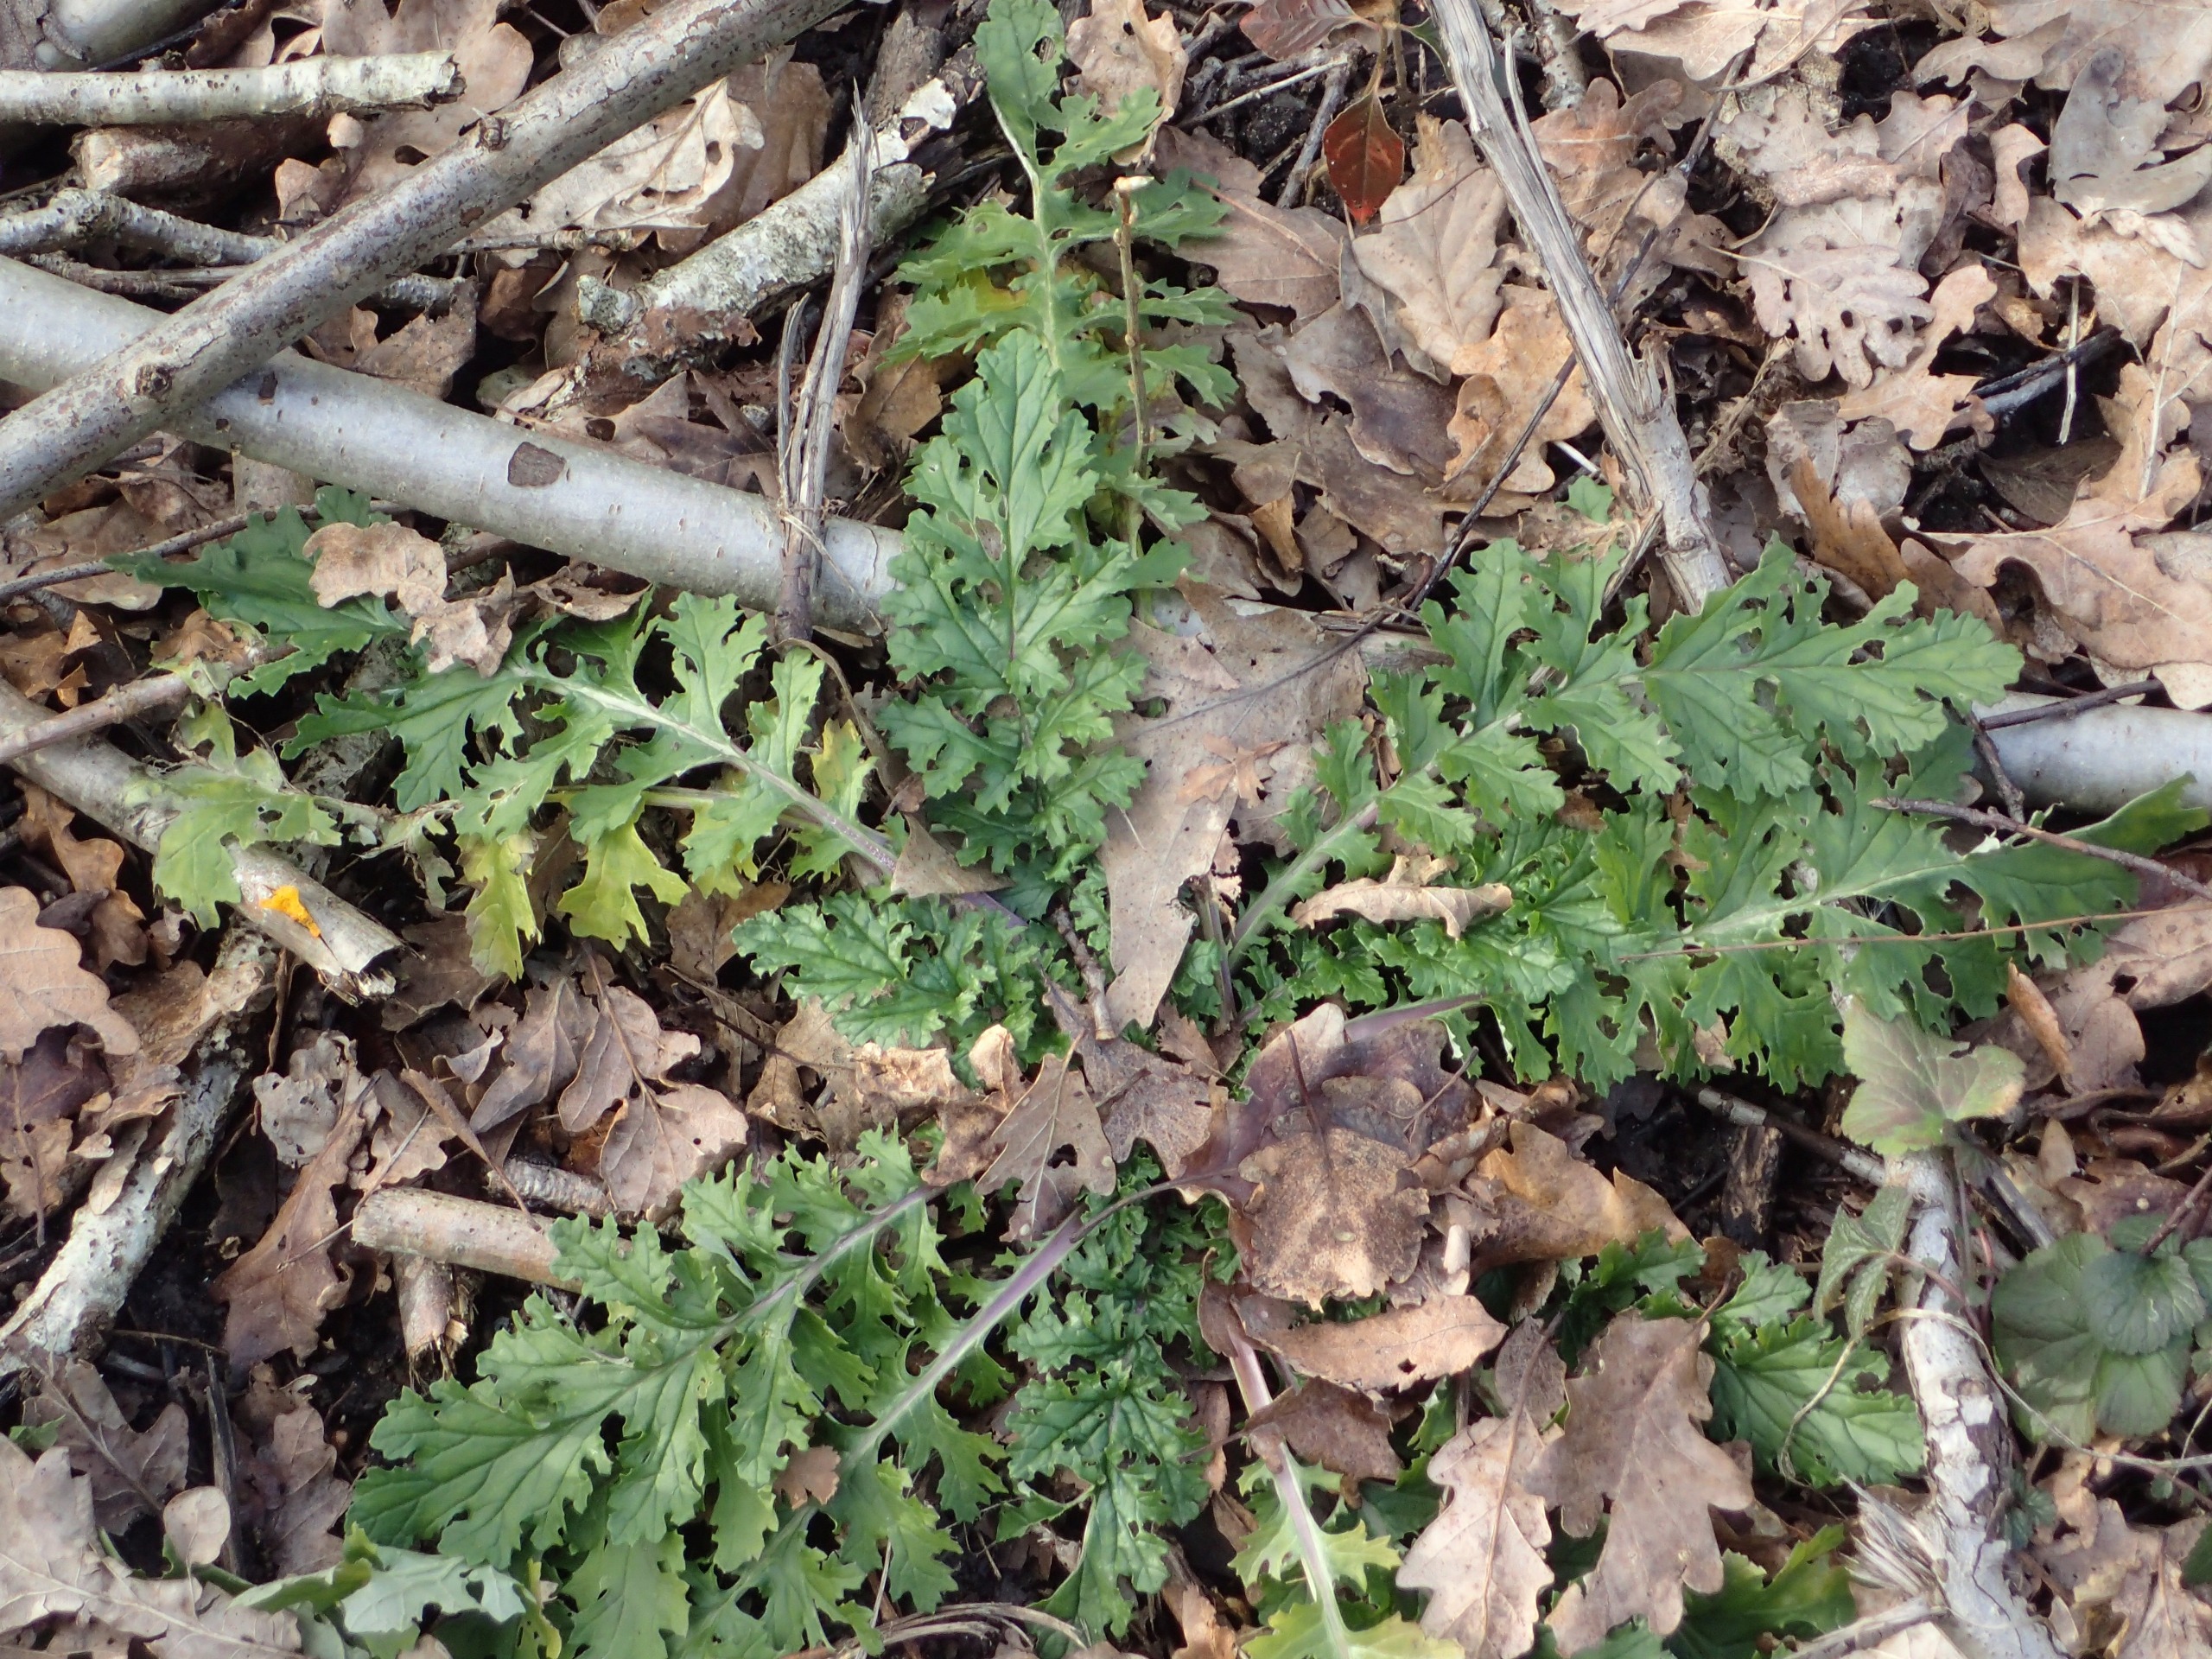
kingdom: Plantae
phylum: Tracheophyta
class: Magnoliopsida
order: Asterales
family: Asteraceae
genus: Jacobaea
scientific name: Jacobaea vulgaris
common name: Eng-brandbæger
